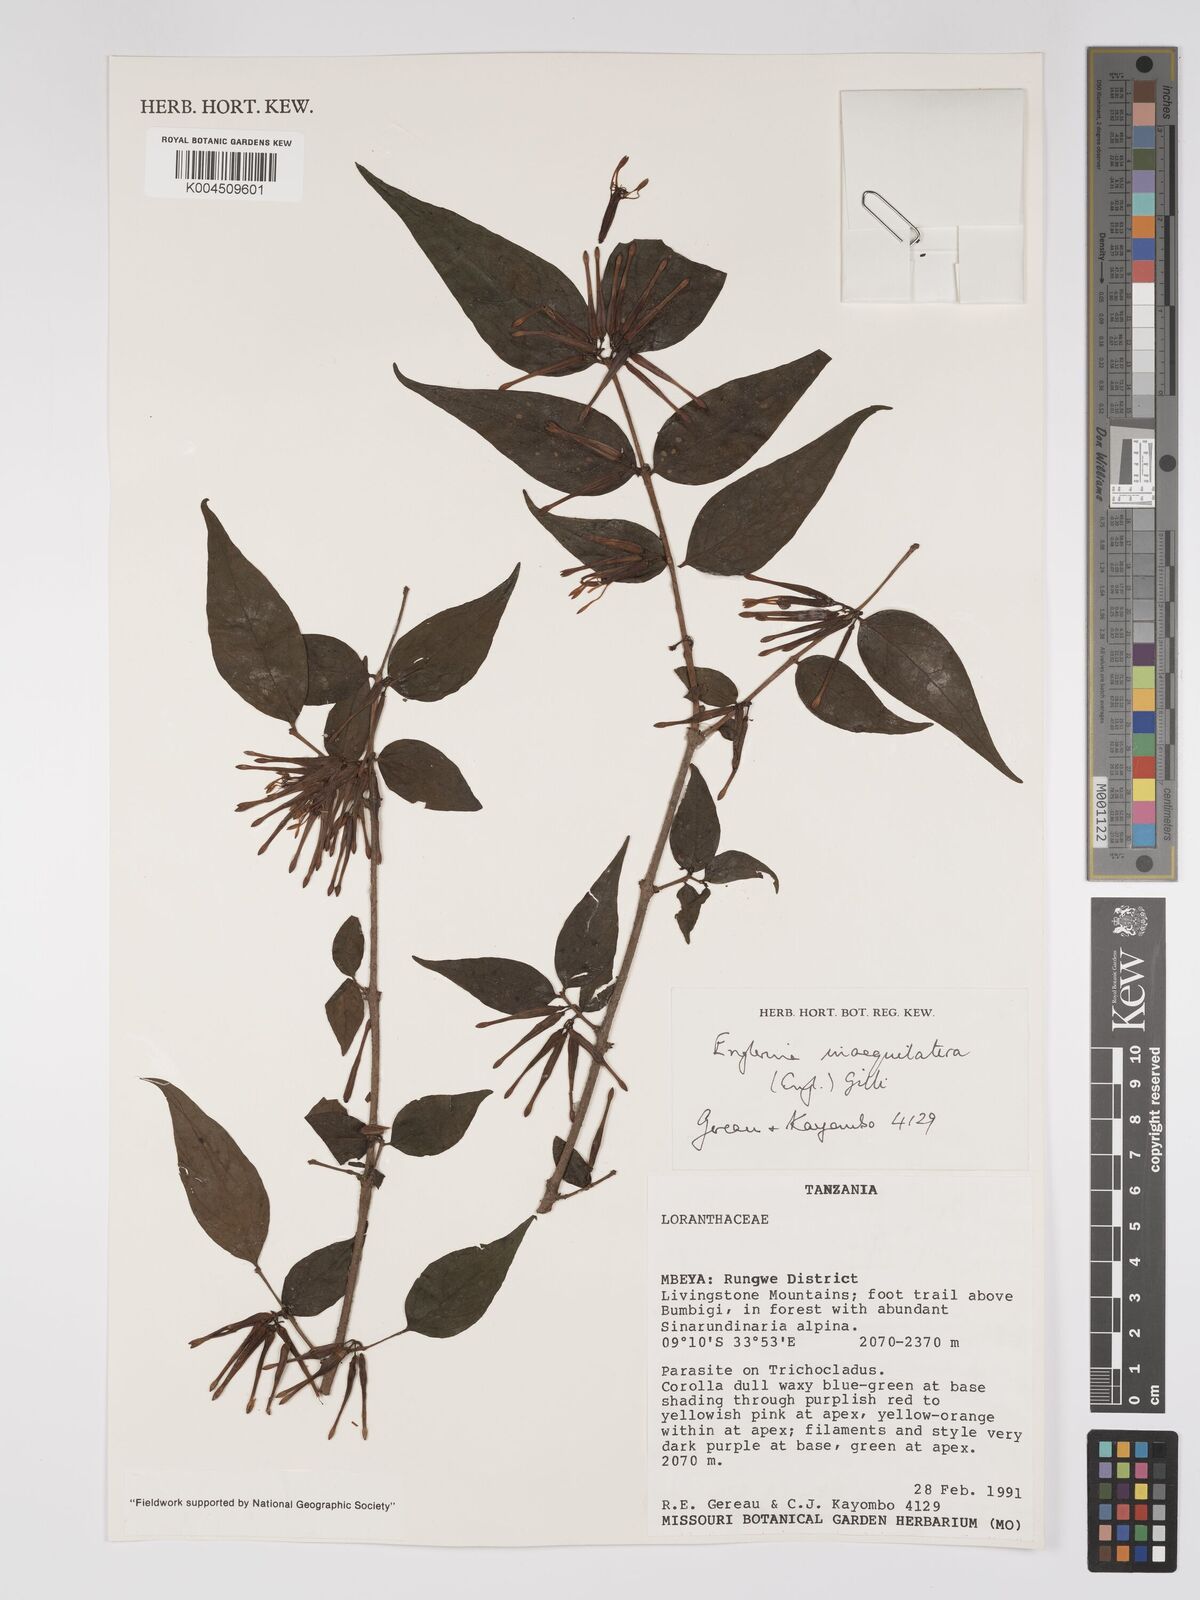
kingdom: Plantae
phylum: Tracheophyta
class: Magnoliopsida
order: Santalales
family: Loranthaceae
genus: Englerina
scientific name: Englerina inaequilatera
